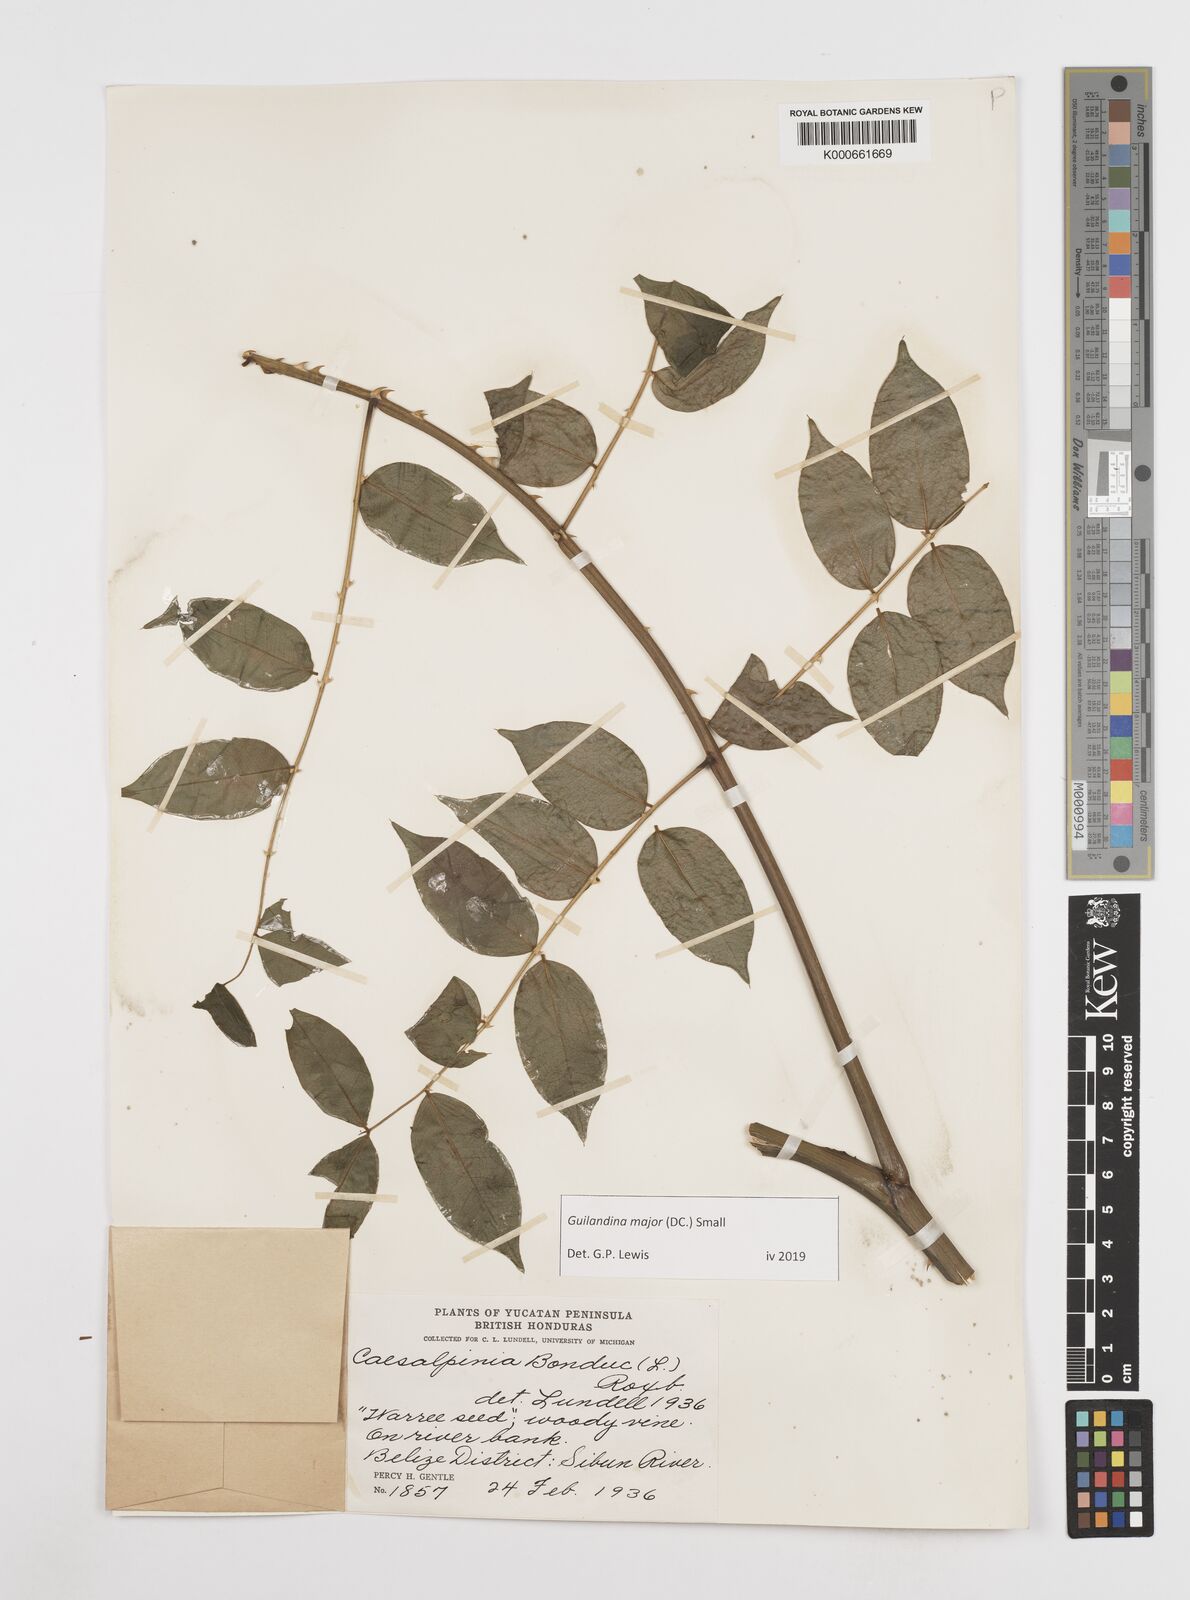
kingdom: Plantae
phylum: Tracheophyta
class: Magnoliopsida
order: Fabales
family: Fabaceae
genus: Guilandina
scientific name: Guilandina major
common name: Hawai'i pearls
